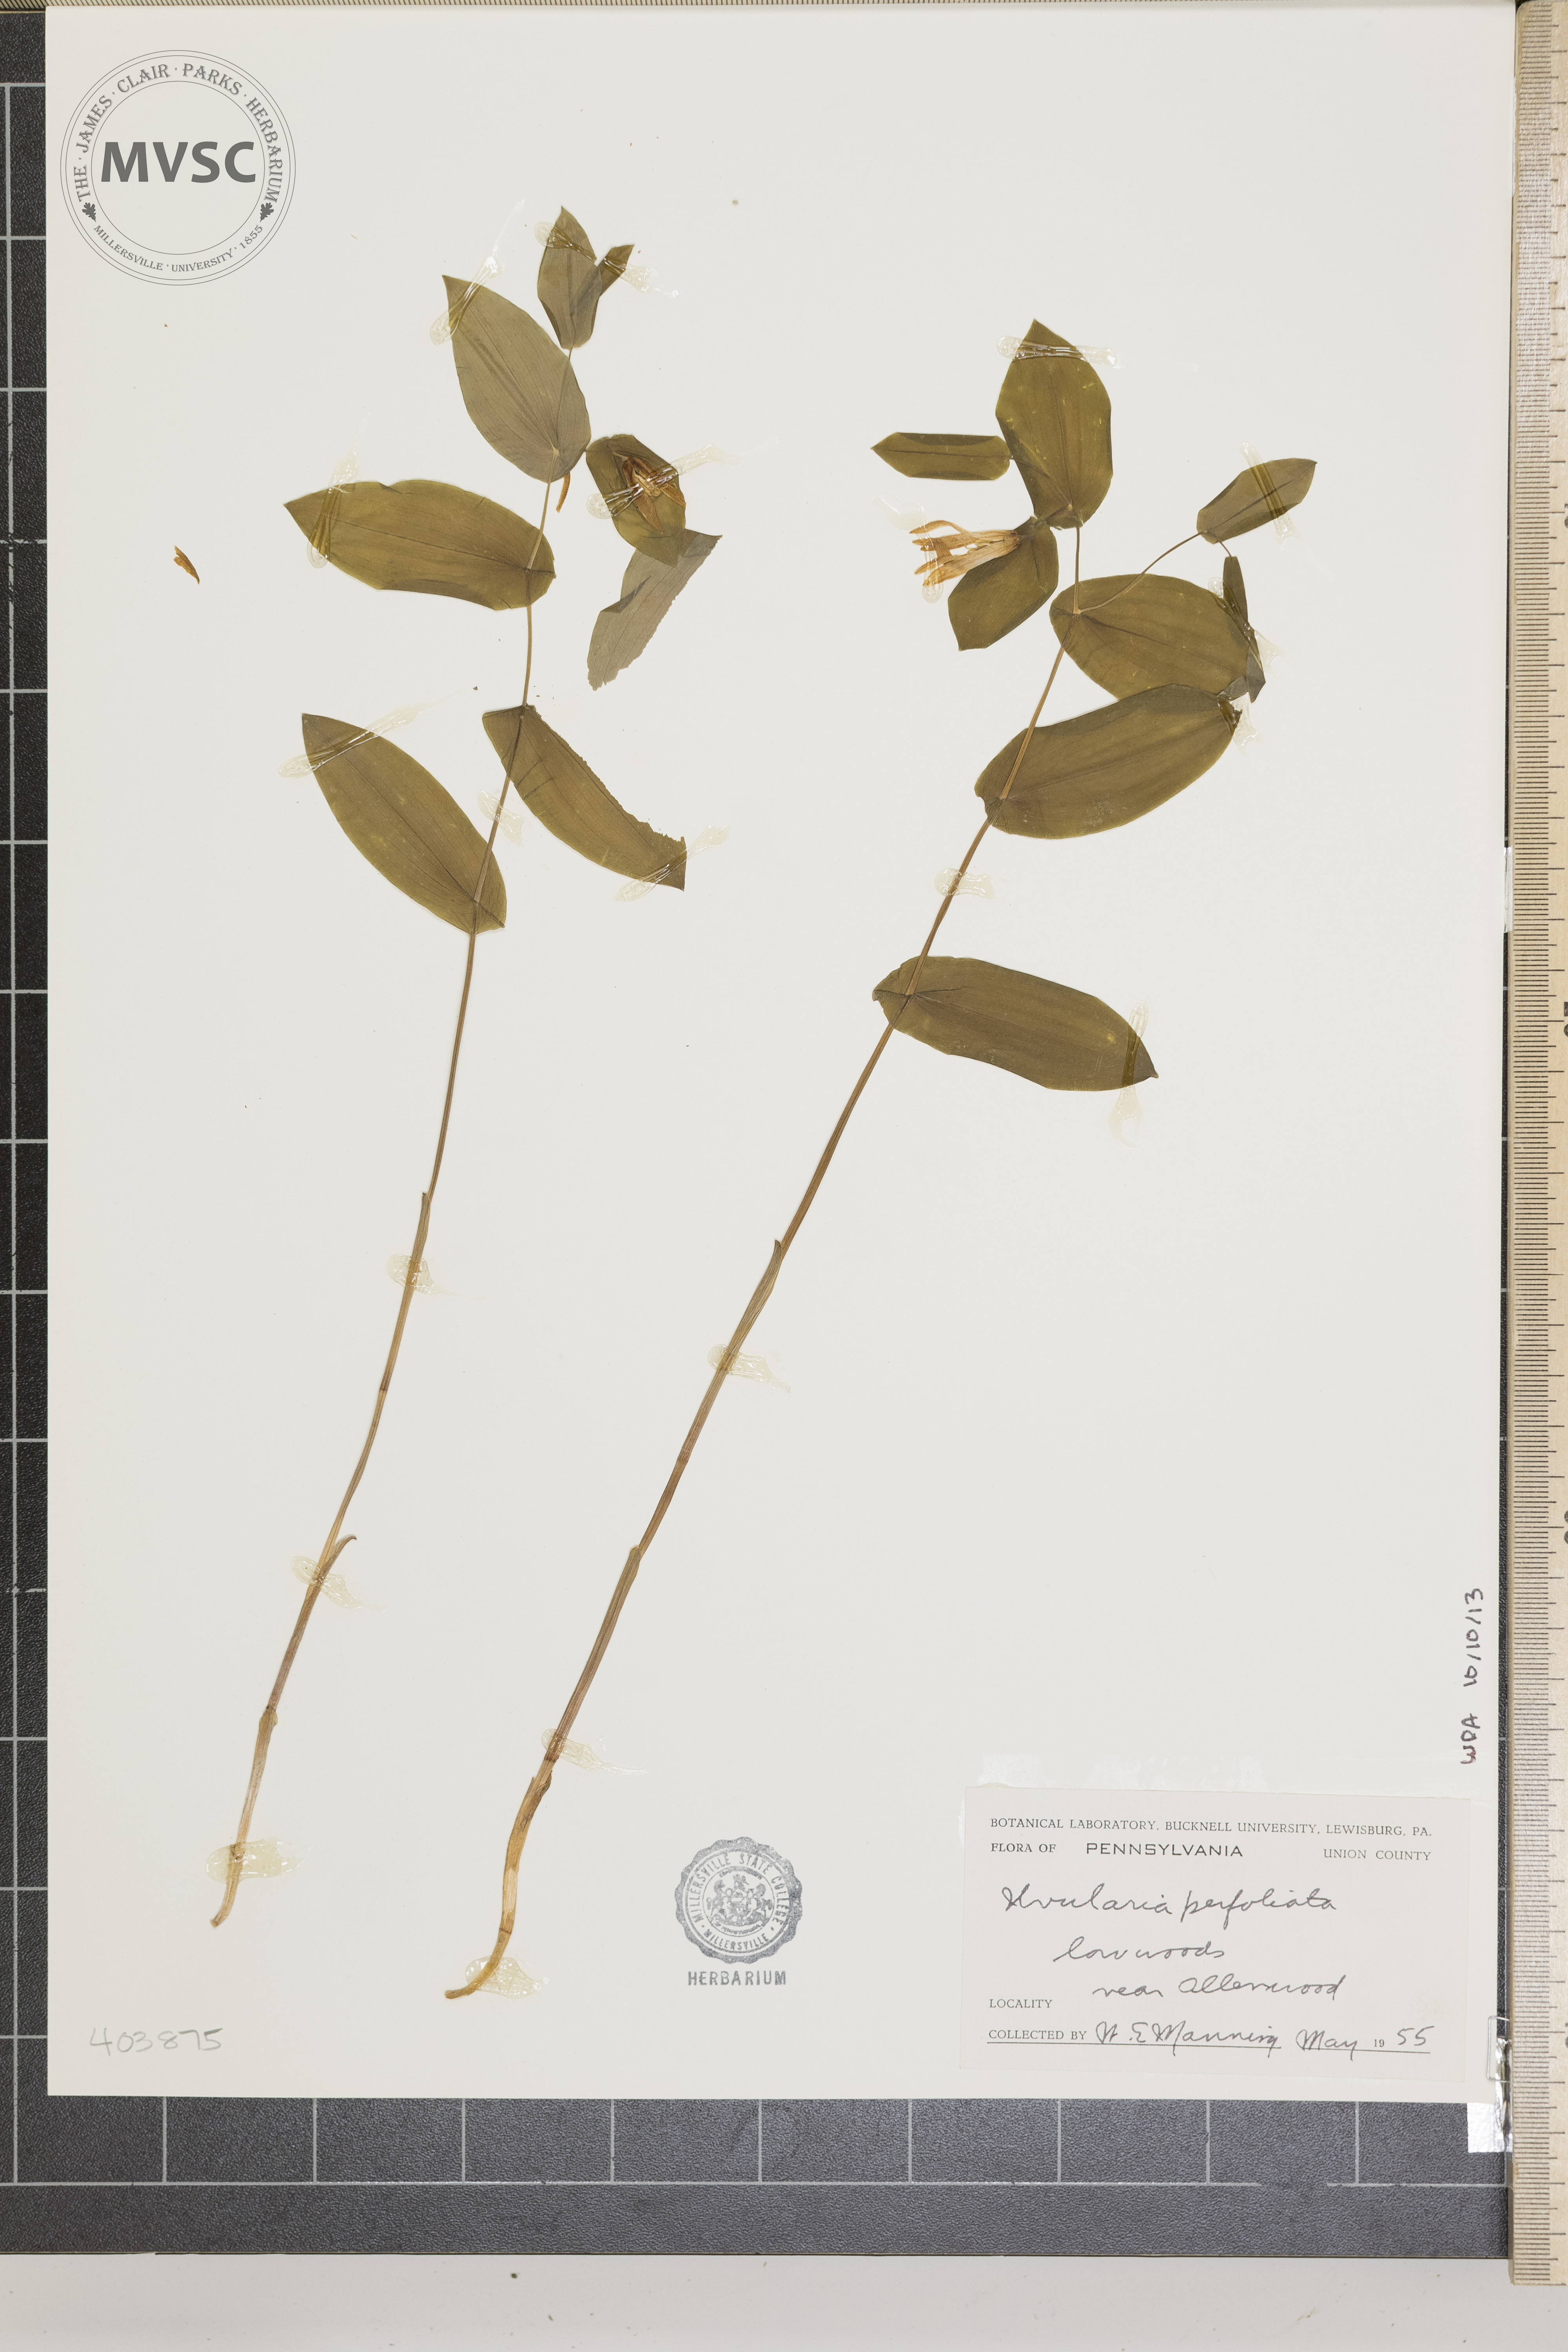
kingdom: Plantae
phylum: Tracheophyta
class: Liliopsida
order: Liliales
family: Colchicaceae
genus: Uvularia
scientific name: Uvularia perfoliata
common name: Perfoliate bellwort
